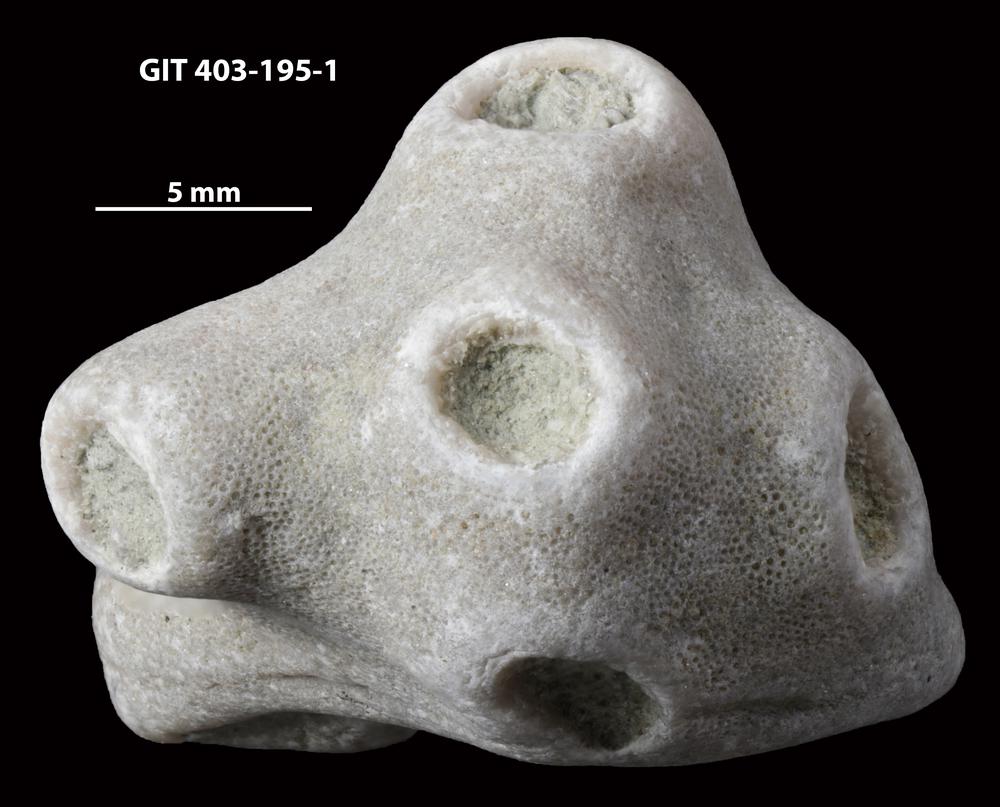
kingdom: Animalia
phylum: Cnidaria
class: Anthozoa
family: Tryplasmatidae
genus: Tryplasma
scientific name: Tryplasma
